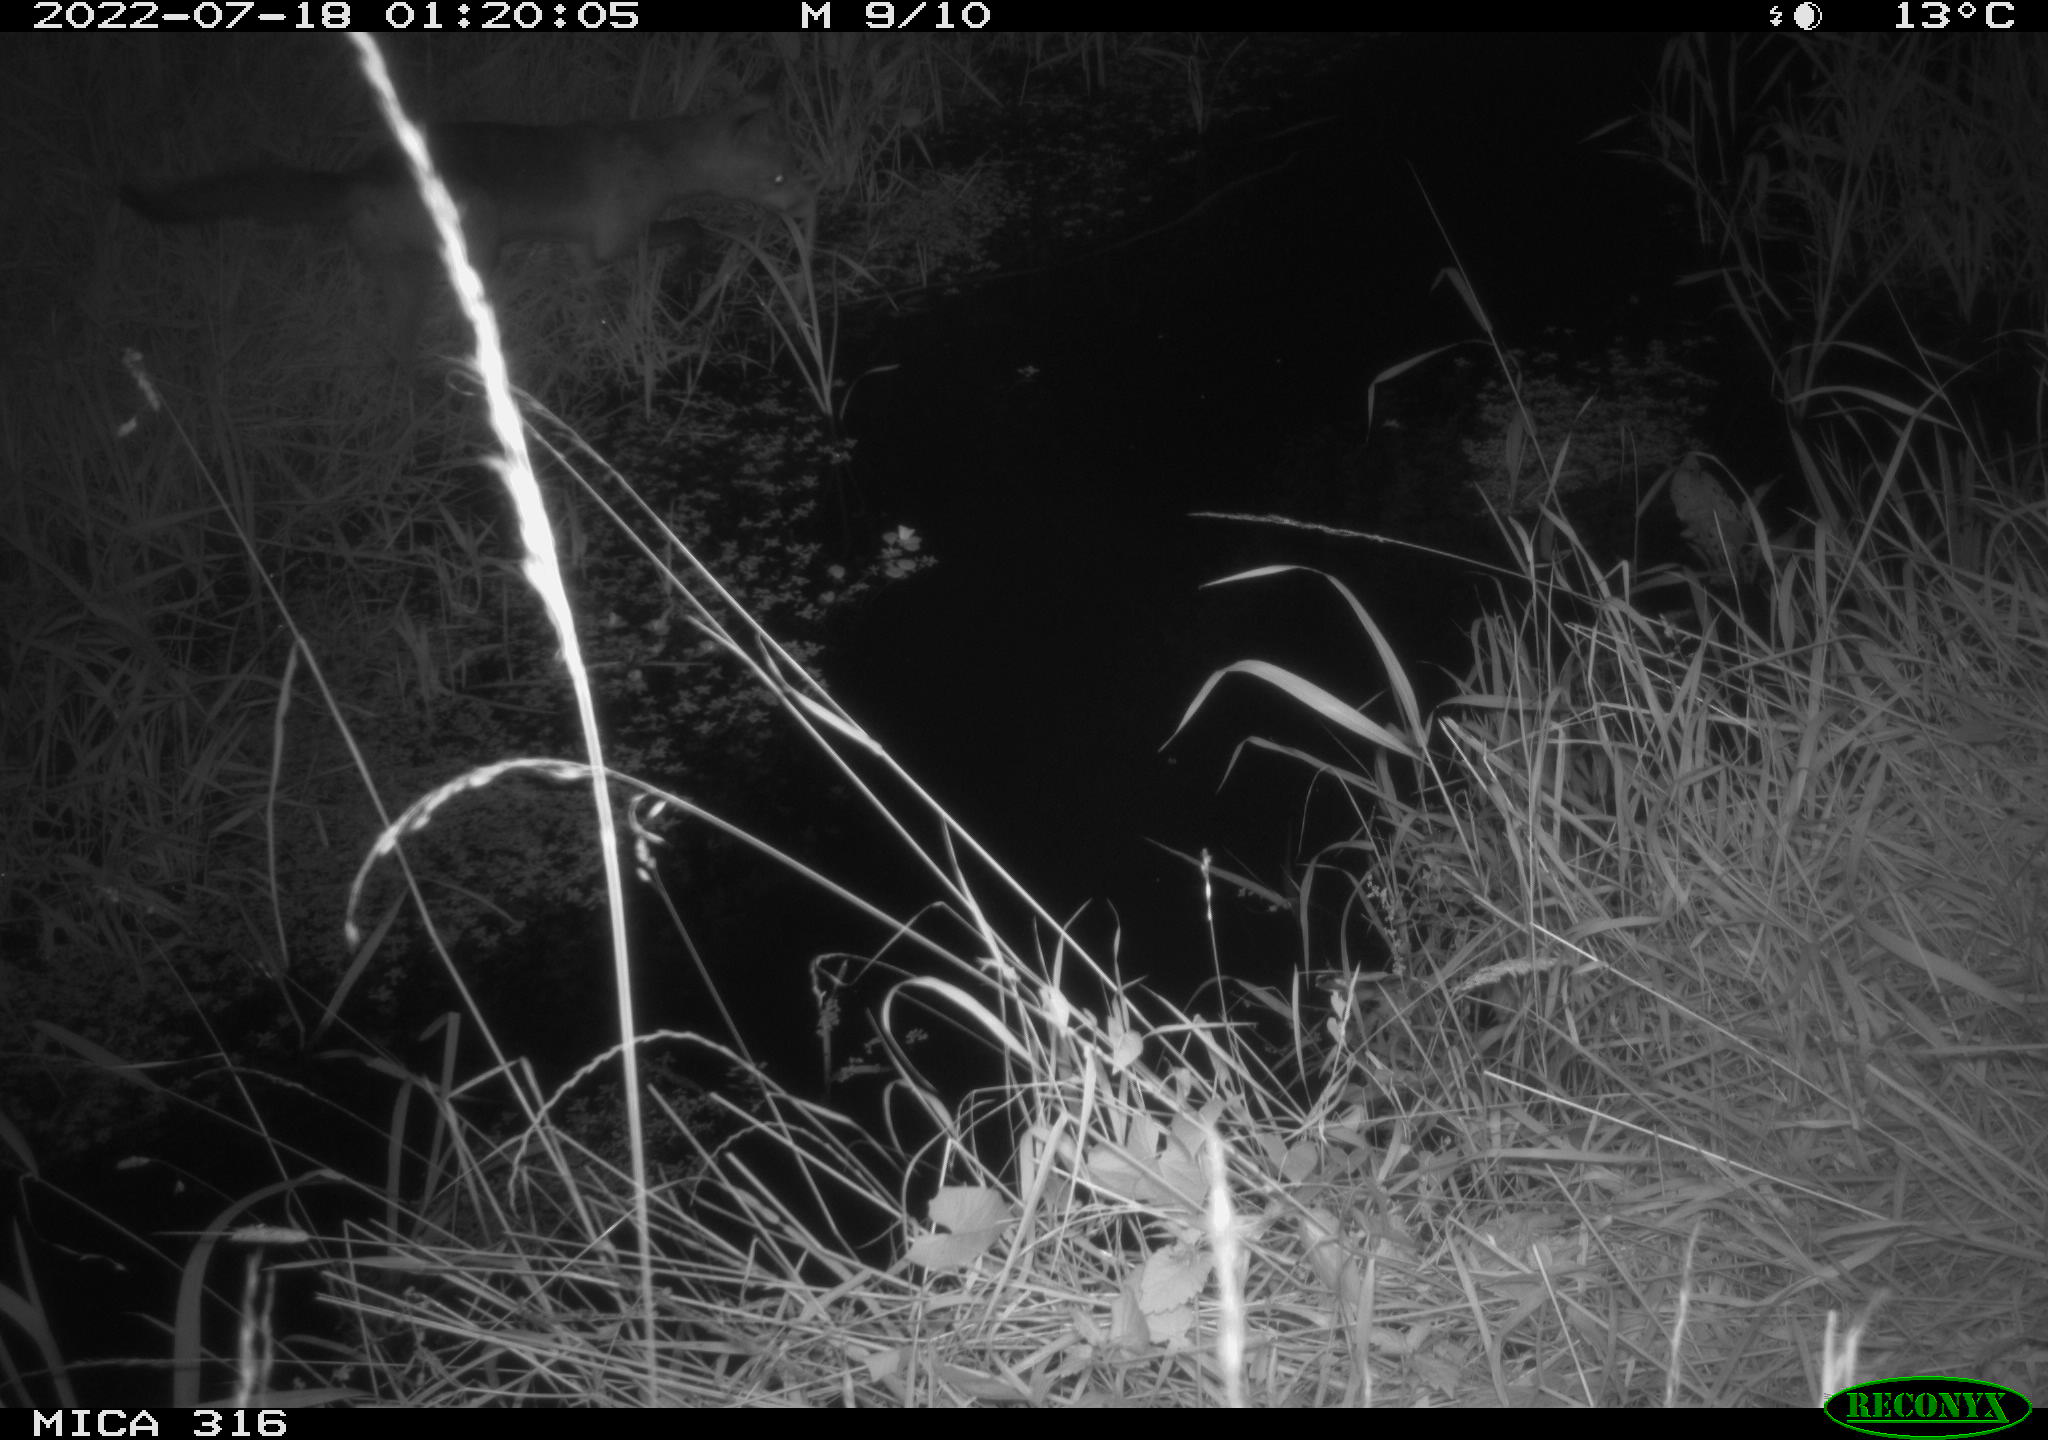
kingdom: Animalia
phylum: Chordata
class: Mammalia
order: Carnivora
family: Canidae
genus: Vulpes
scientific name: Vulpes vulpes
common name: Red fox
